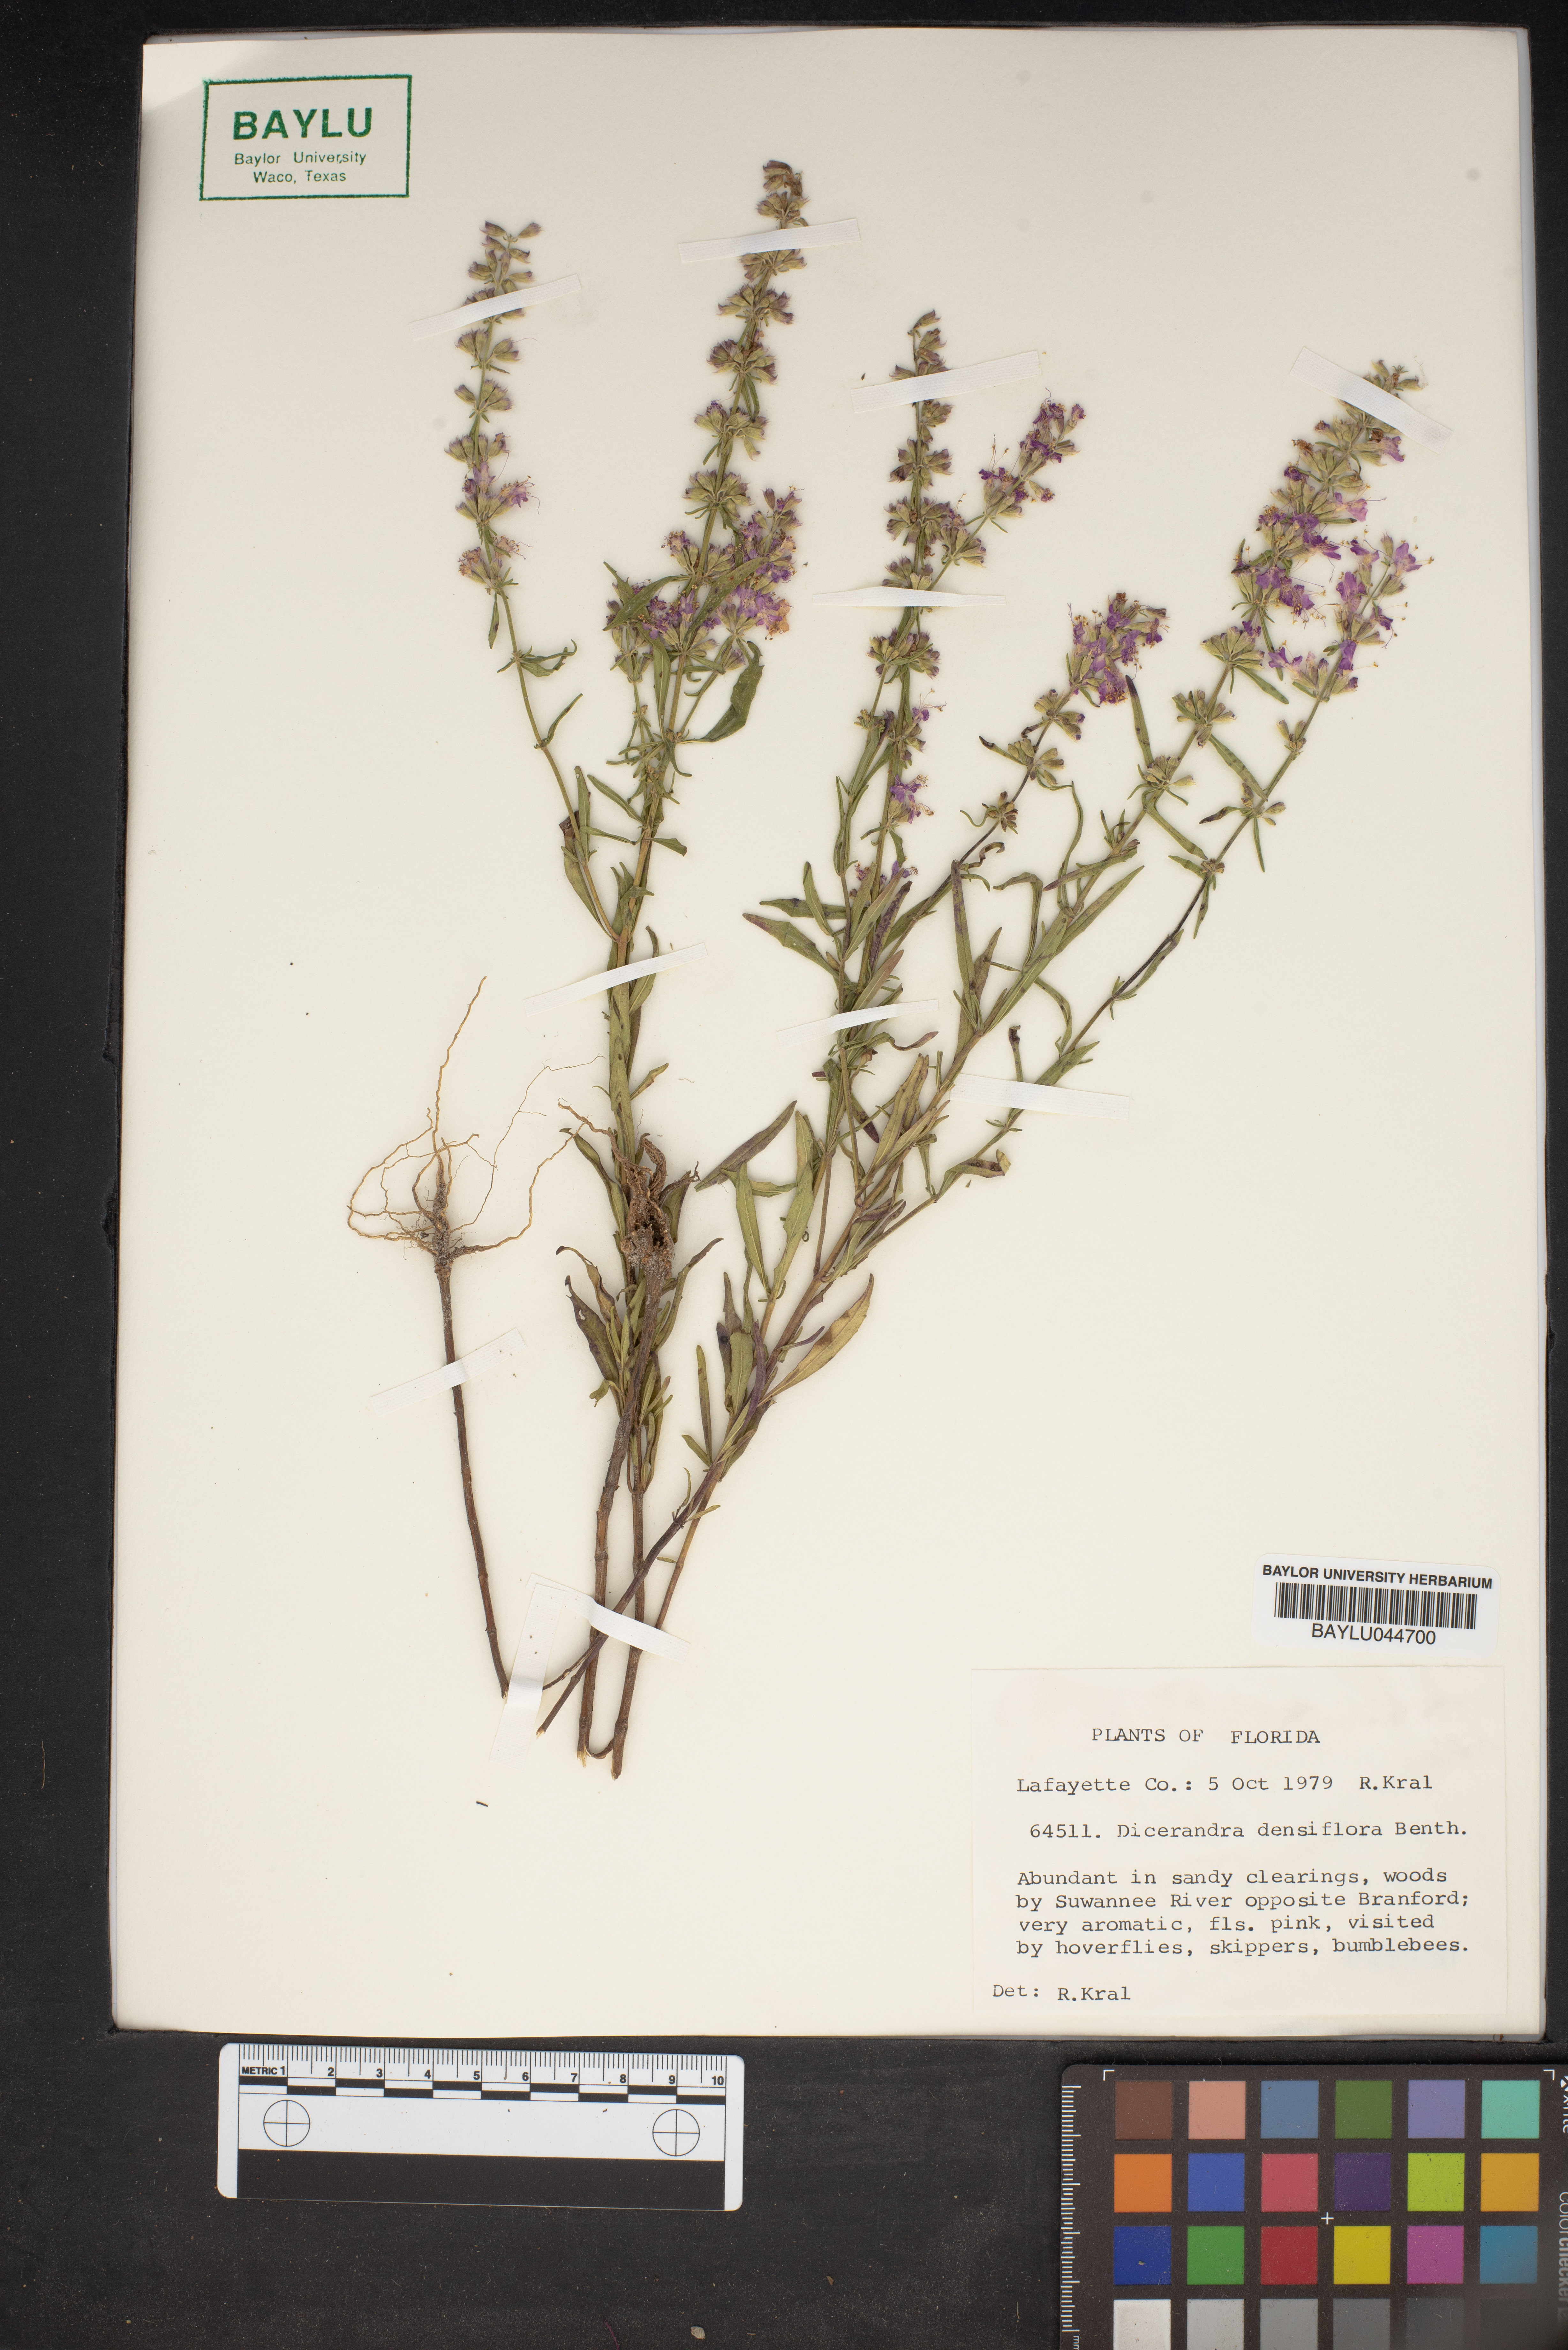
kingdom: Plantae
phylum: Tracheophyta
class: Magnoliopsida
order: Lamiales
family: Lamiaceae
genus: Dicerandra
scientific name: Dicerandra densiflora
